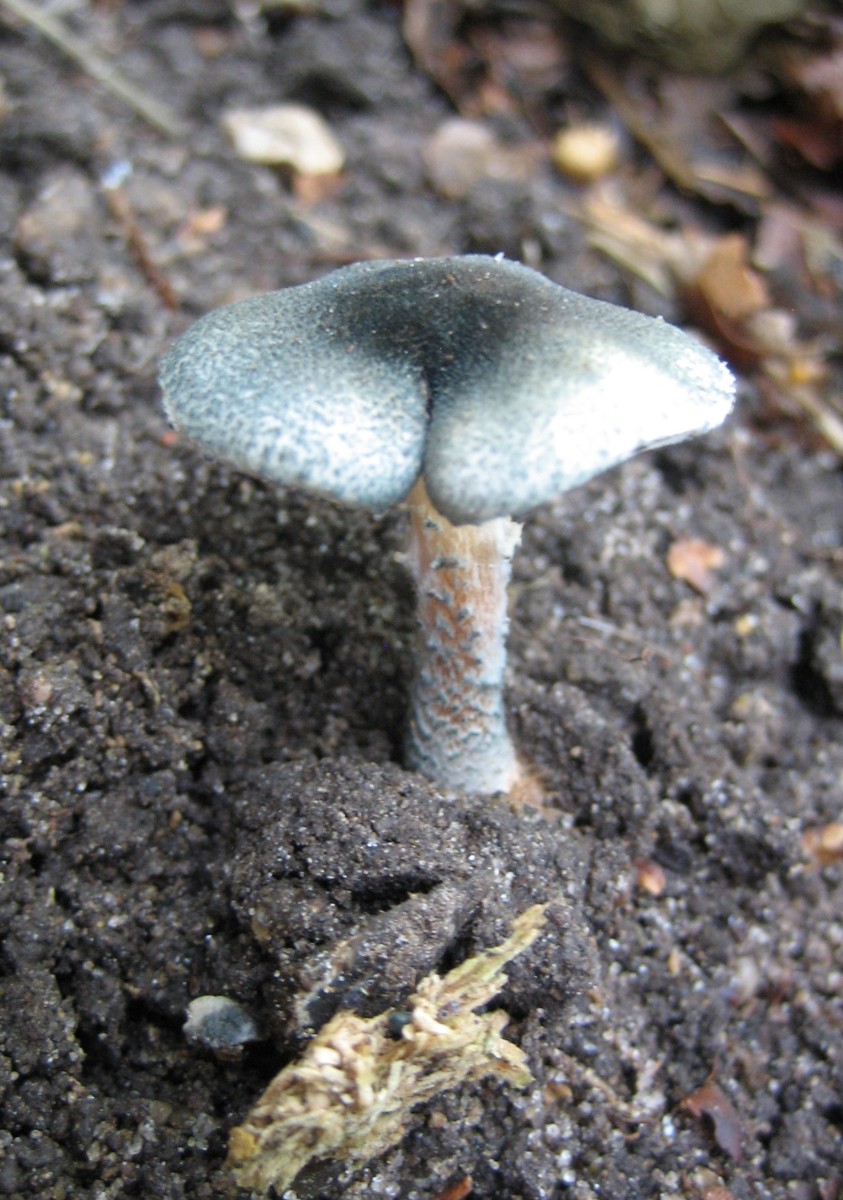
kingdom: Fungi
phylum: Basidiomycota
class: Agaricomycetes
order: Agaricales
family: Agaricaceae
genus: Lepiota
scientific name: Lepiota grangei
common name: grønskællet parasolhat
